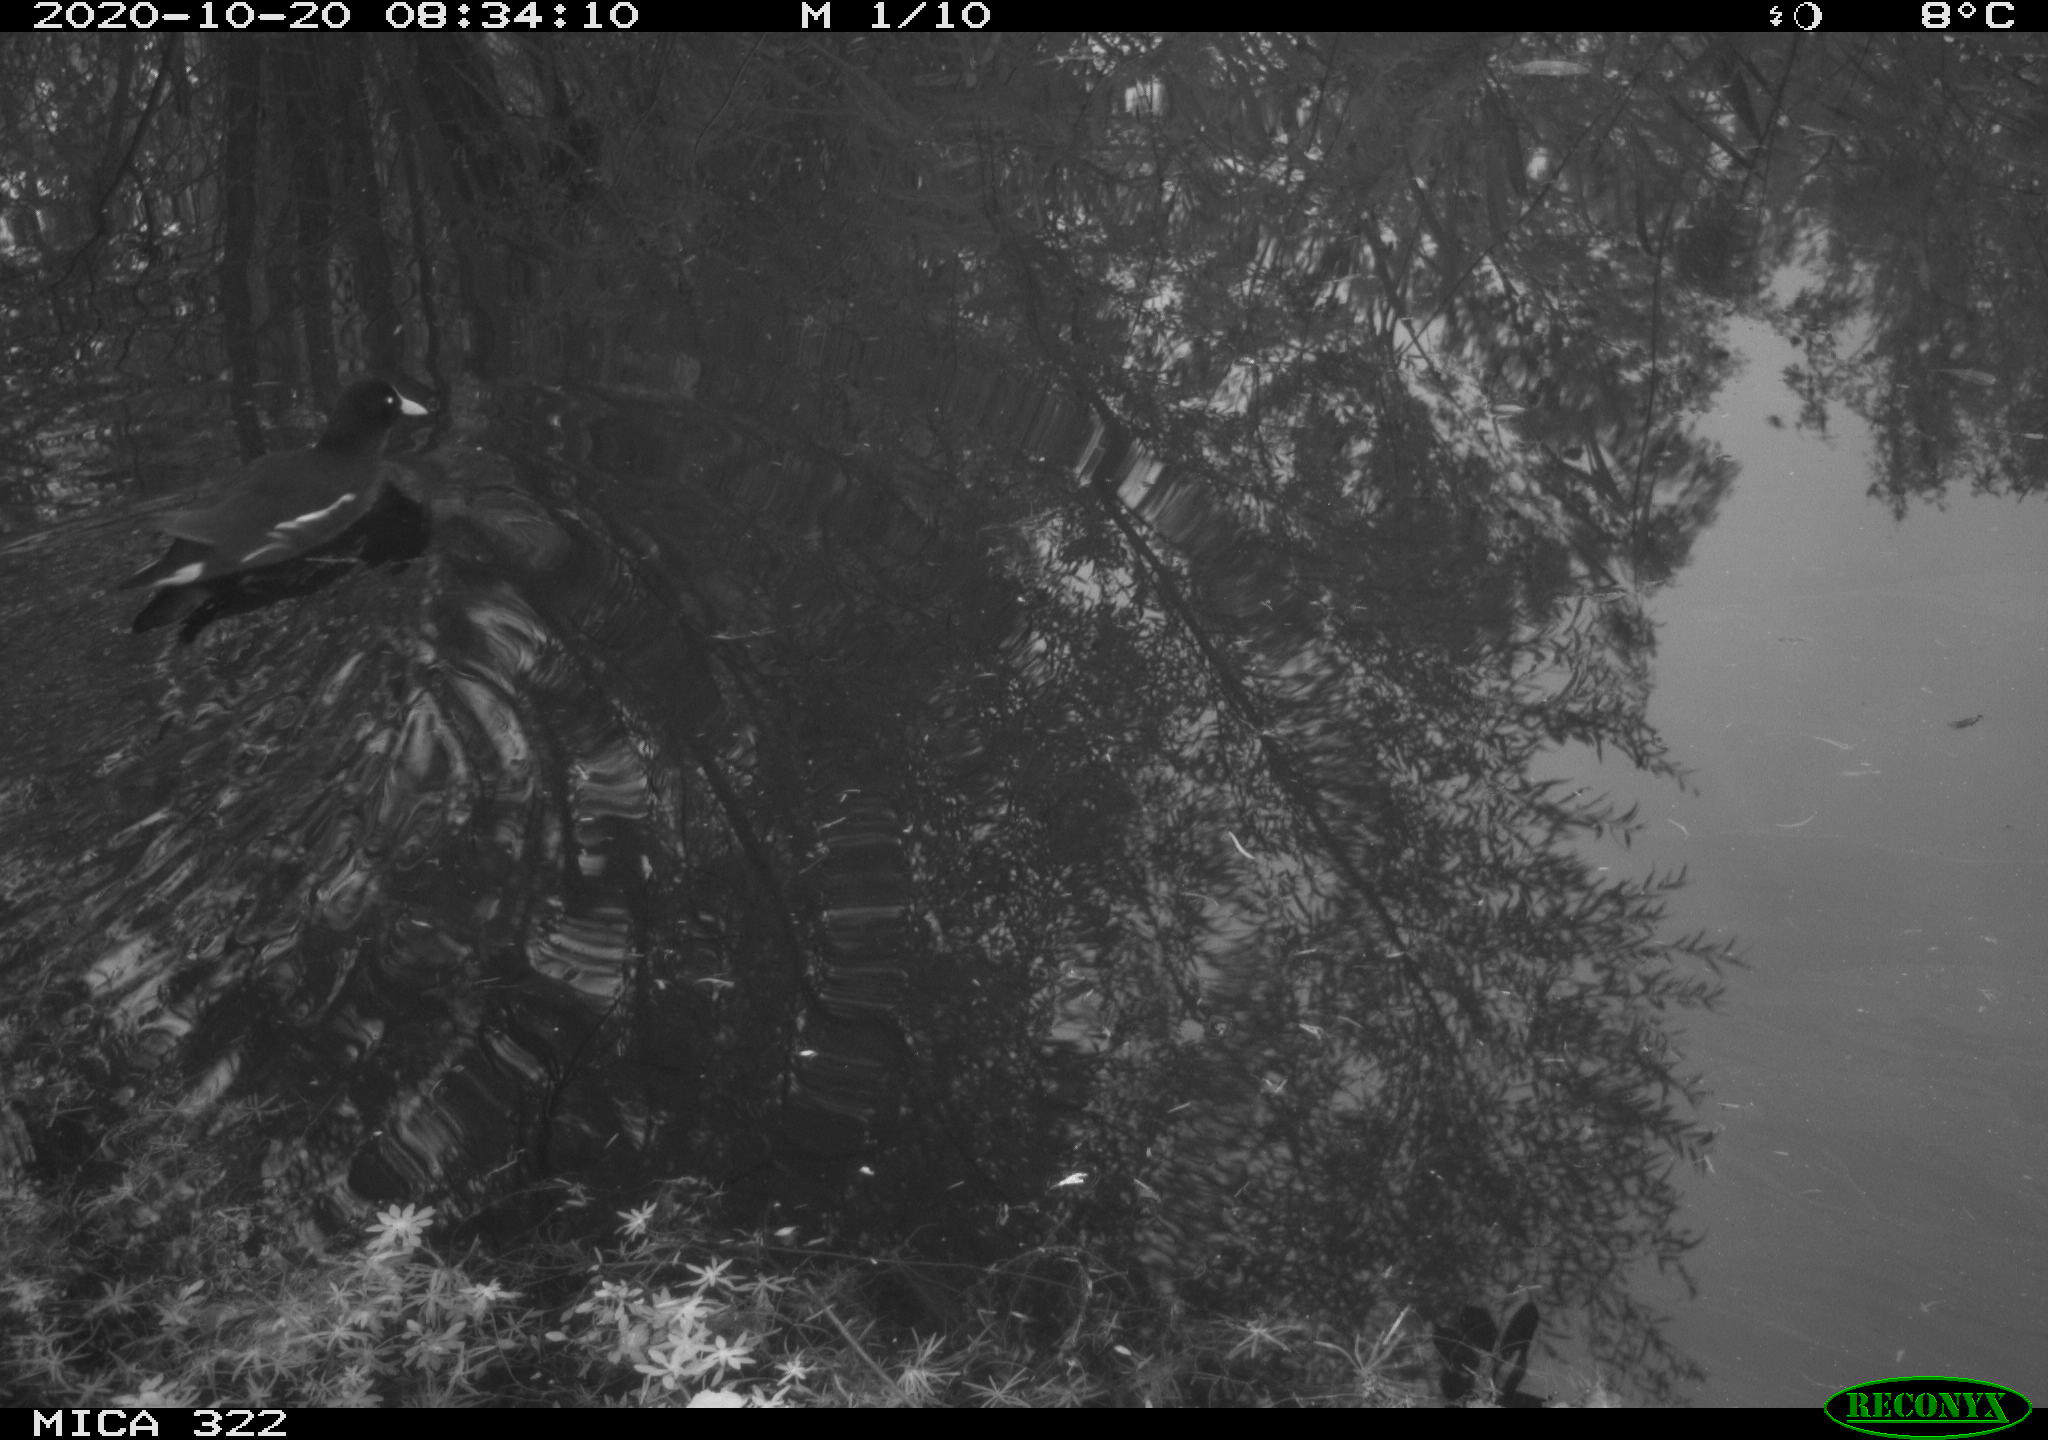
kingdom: Animalia
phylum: Chordata
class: Aves
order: Gruiformes
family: Rallidae
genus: Gallinula
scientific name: Gallinula chloropus
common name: Common moorhen
